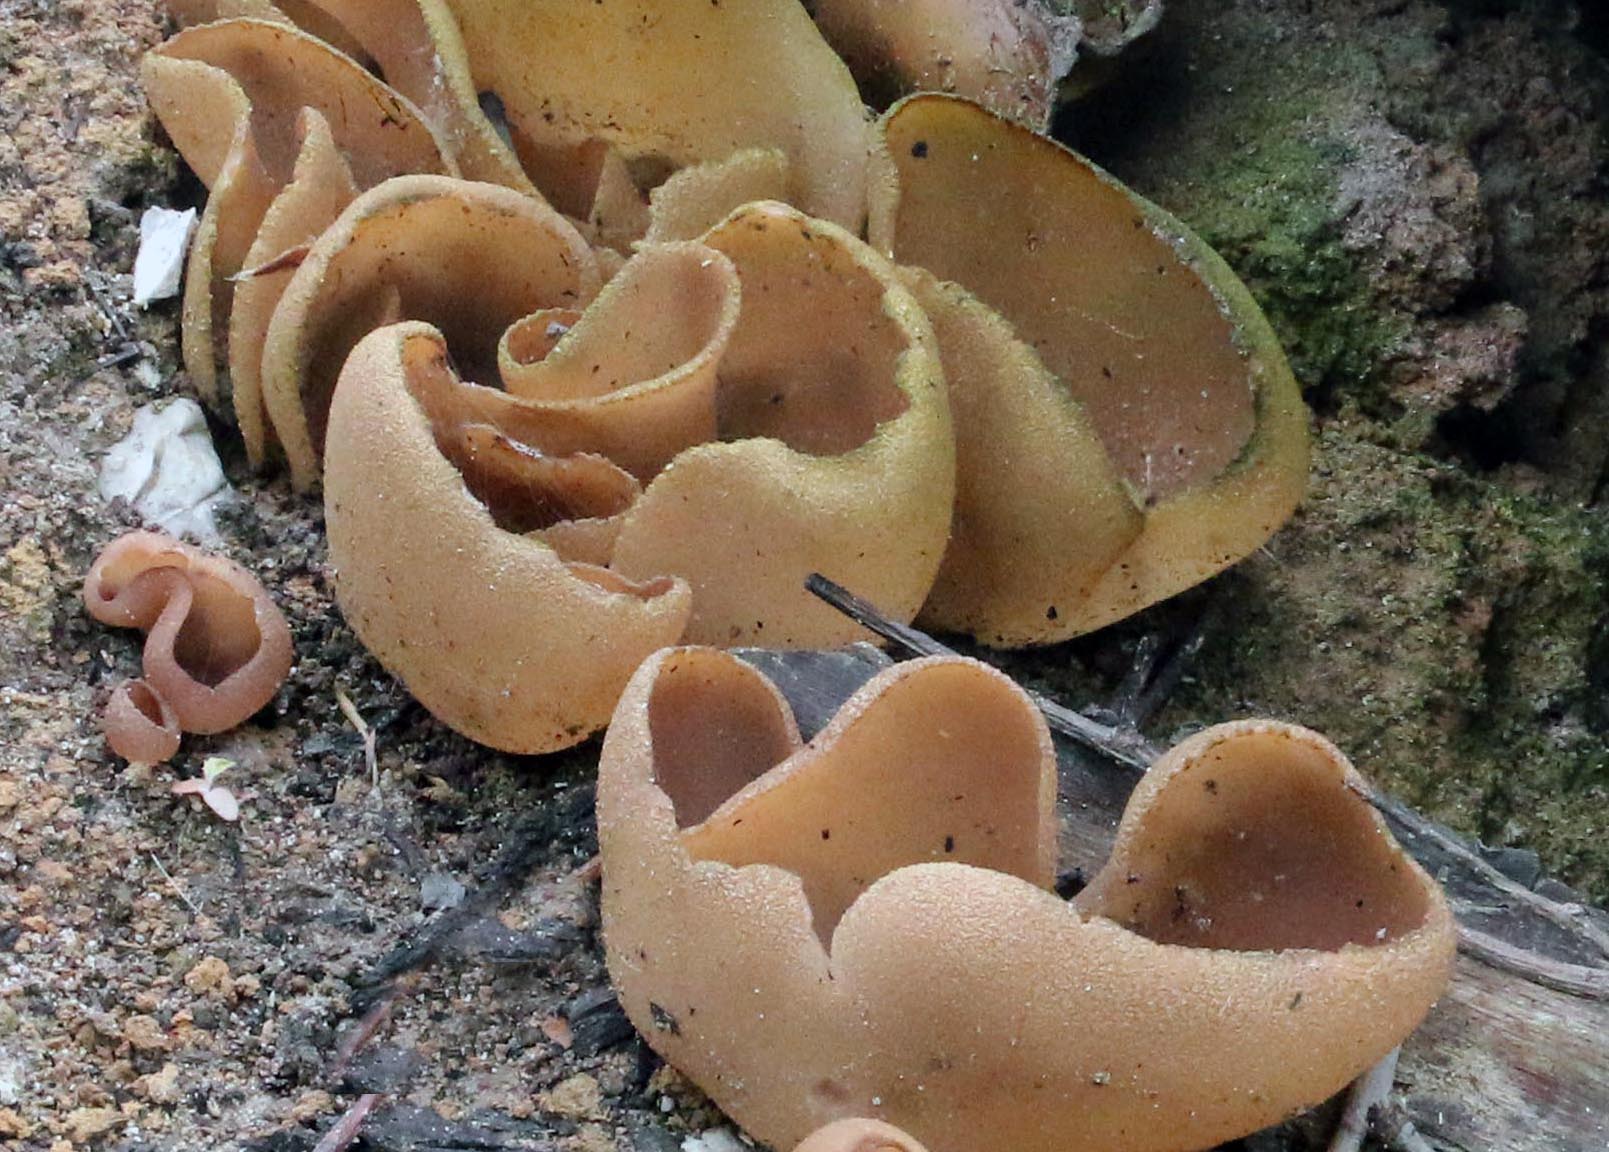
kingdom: Fungi
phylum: Ascomycota
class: Pezizomycetes
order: Pezizales
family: Pezizaceae
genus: Daleomyces
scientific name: Daleomyces petersii
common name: brandplet-bægersvamp
